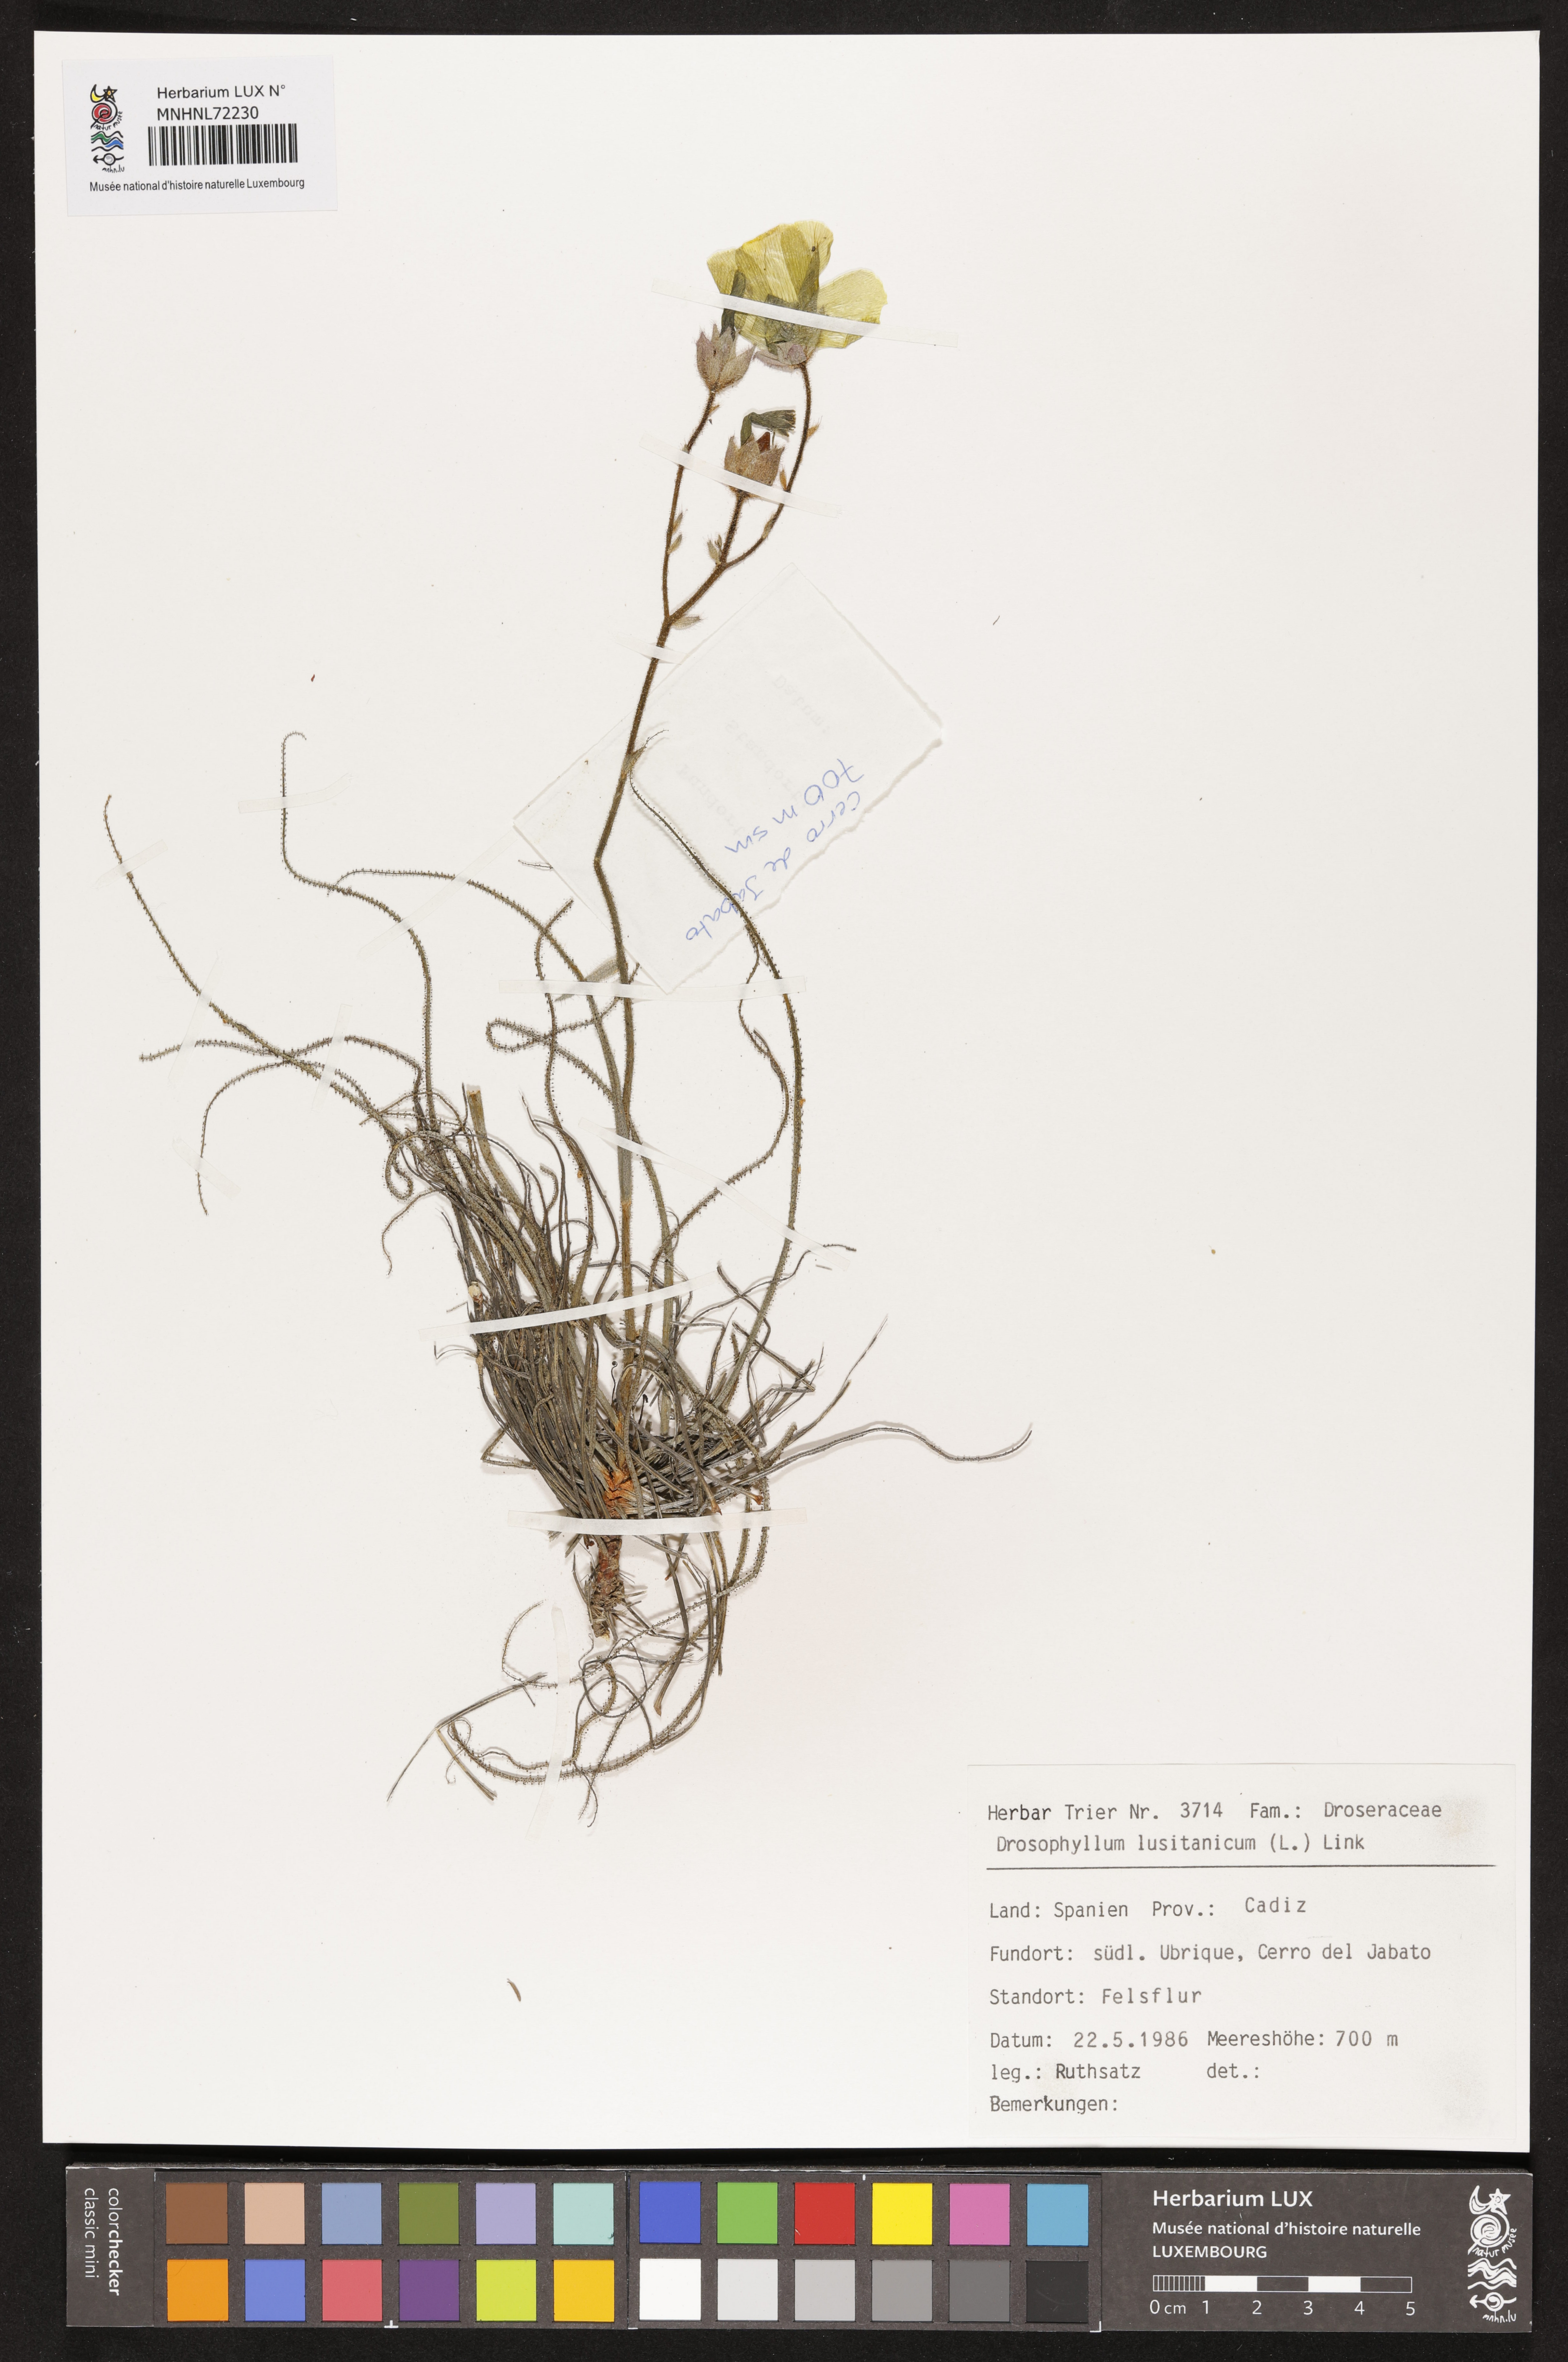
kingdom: Plantae
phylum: Tracheophyta
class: Magnoliopsida
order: Caryophyllales
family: Drosophyllaceae
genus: Drosophyllum
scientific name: Drosophyllum lusitanicum
